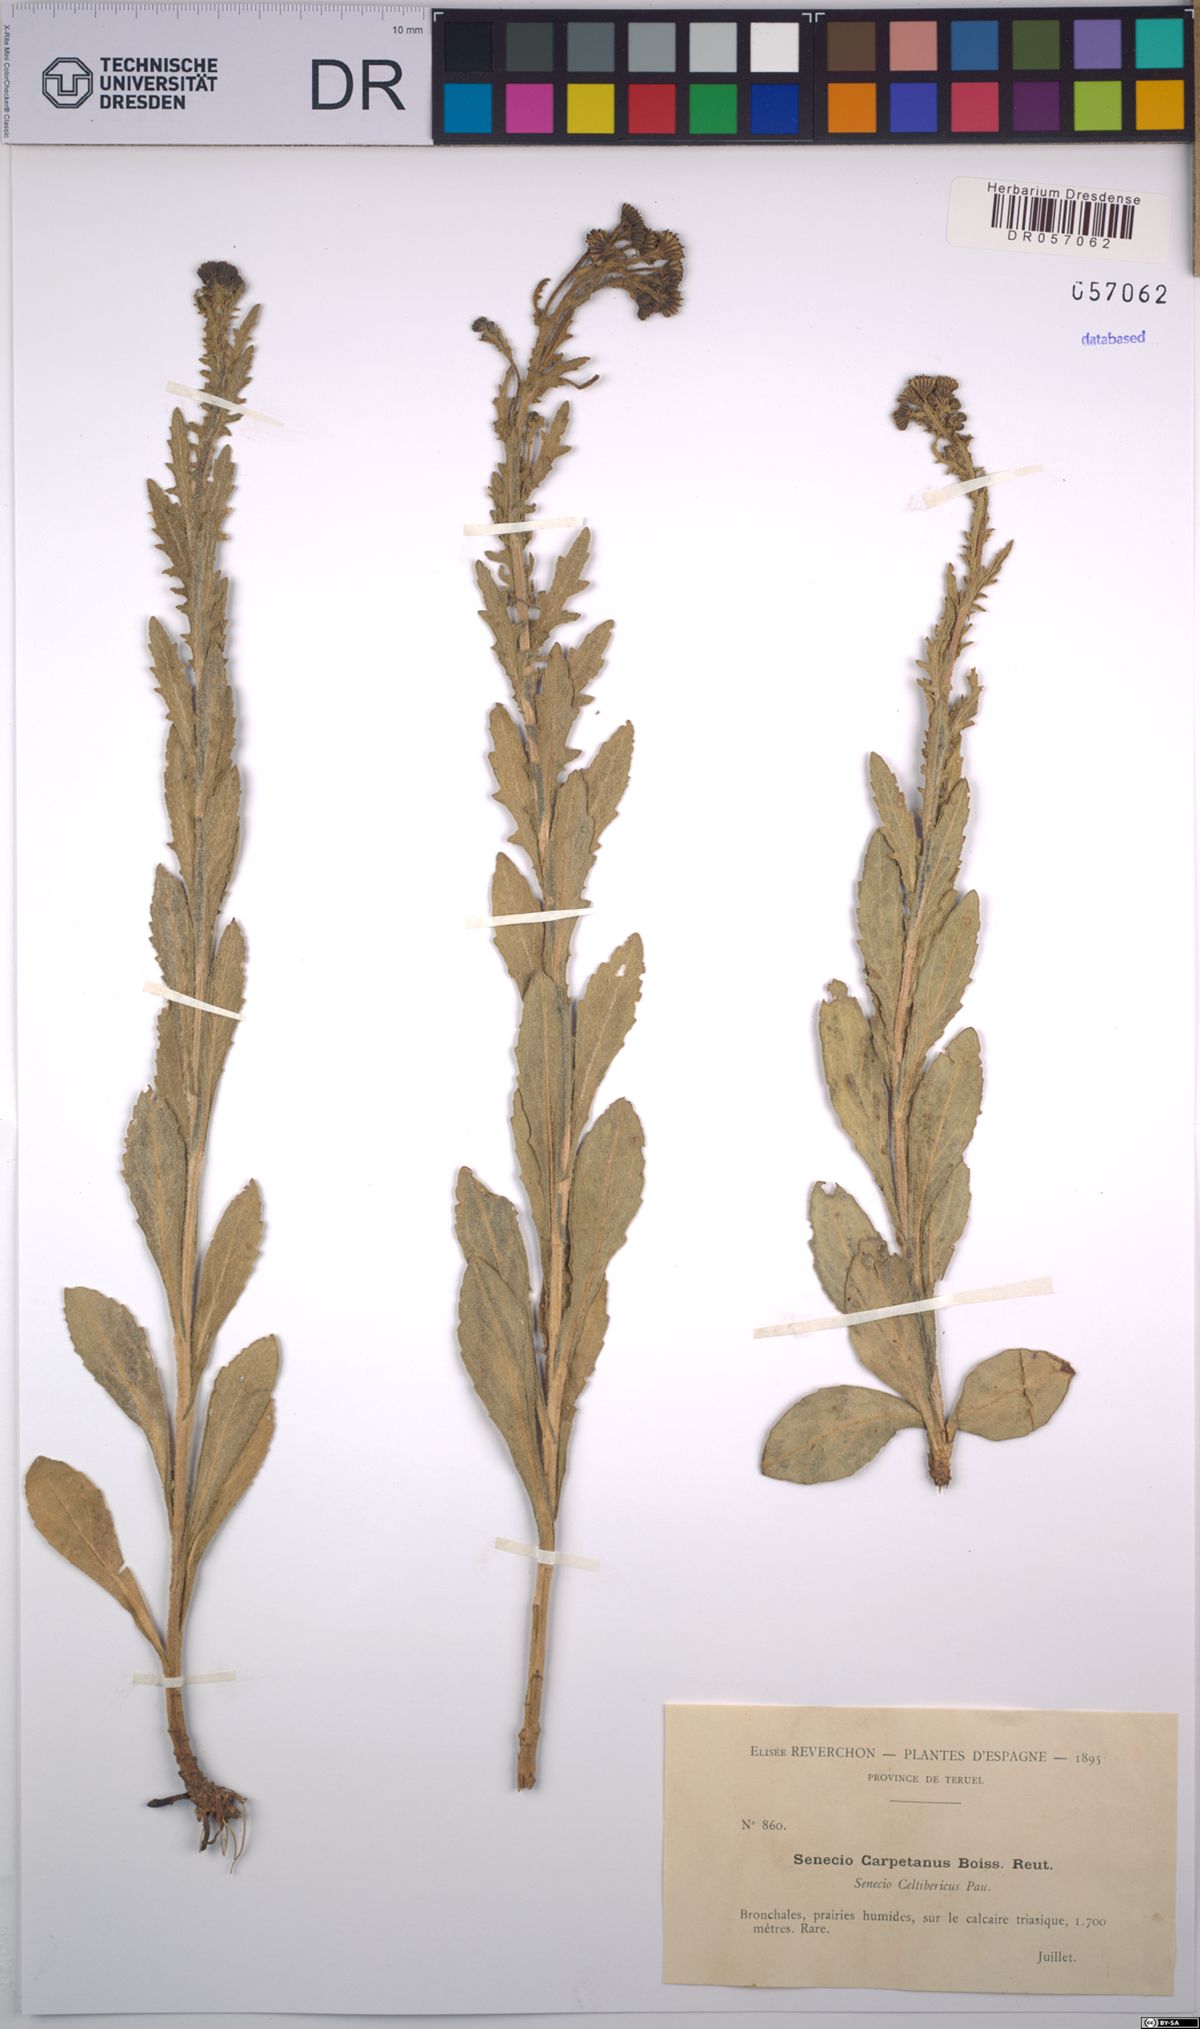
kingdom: Plantae
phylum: Tracheophyta
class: Magnoliopsida
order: Asterales
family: Asteraceae
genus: Senecio
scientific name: Senecio carpetanus
